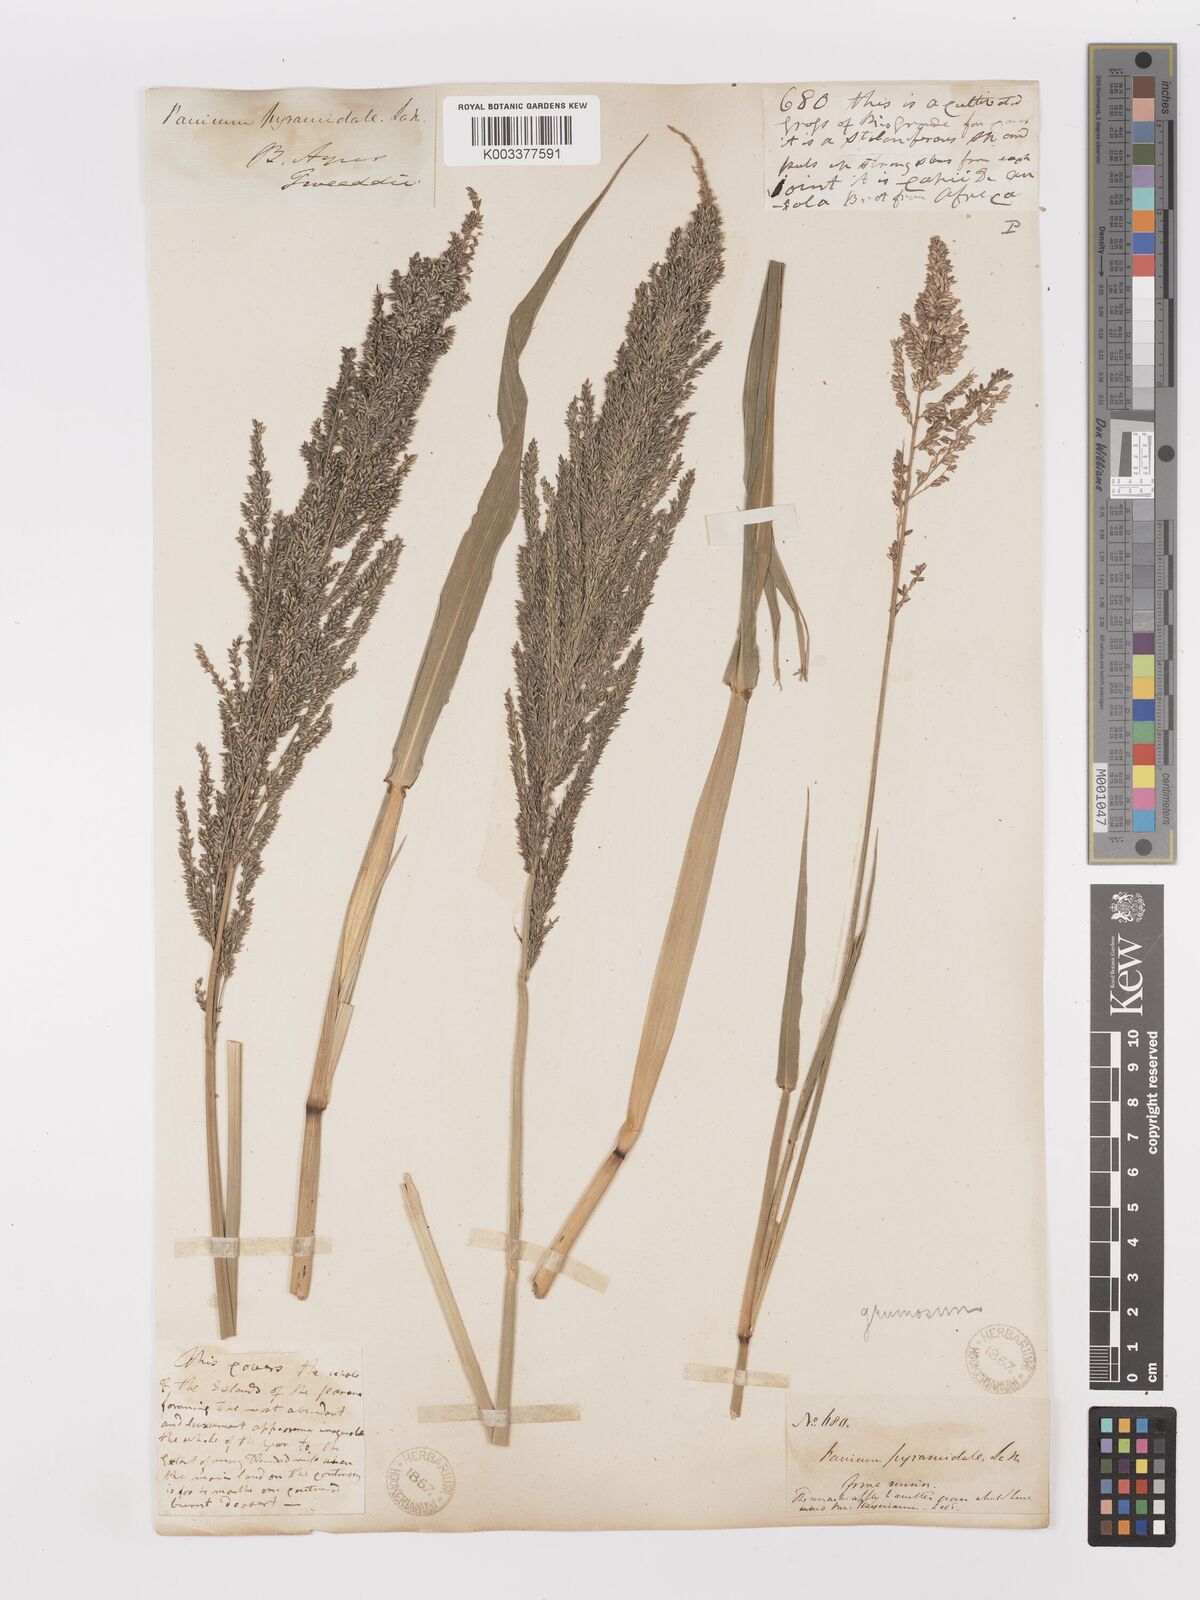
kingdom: Plantae
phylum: Tracheophyta
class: Liliopsida
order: Poales
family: Poaceae
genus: Hymenachne
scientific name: Hymenachne grumosa
